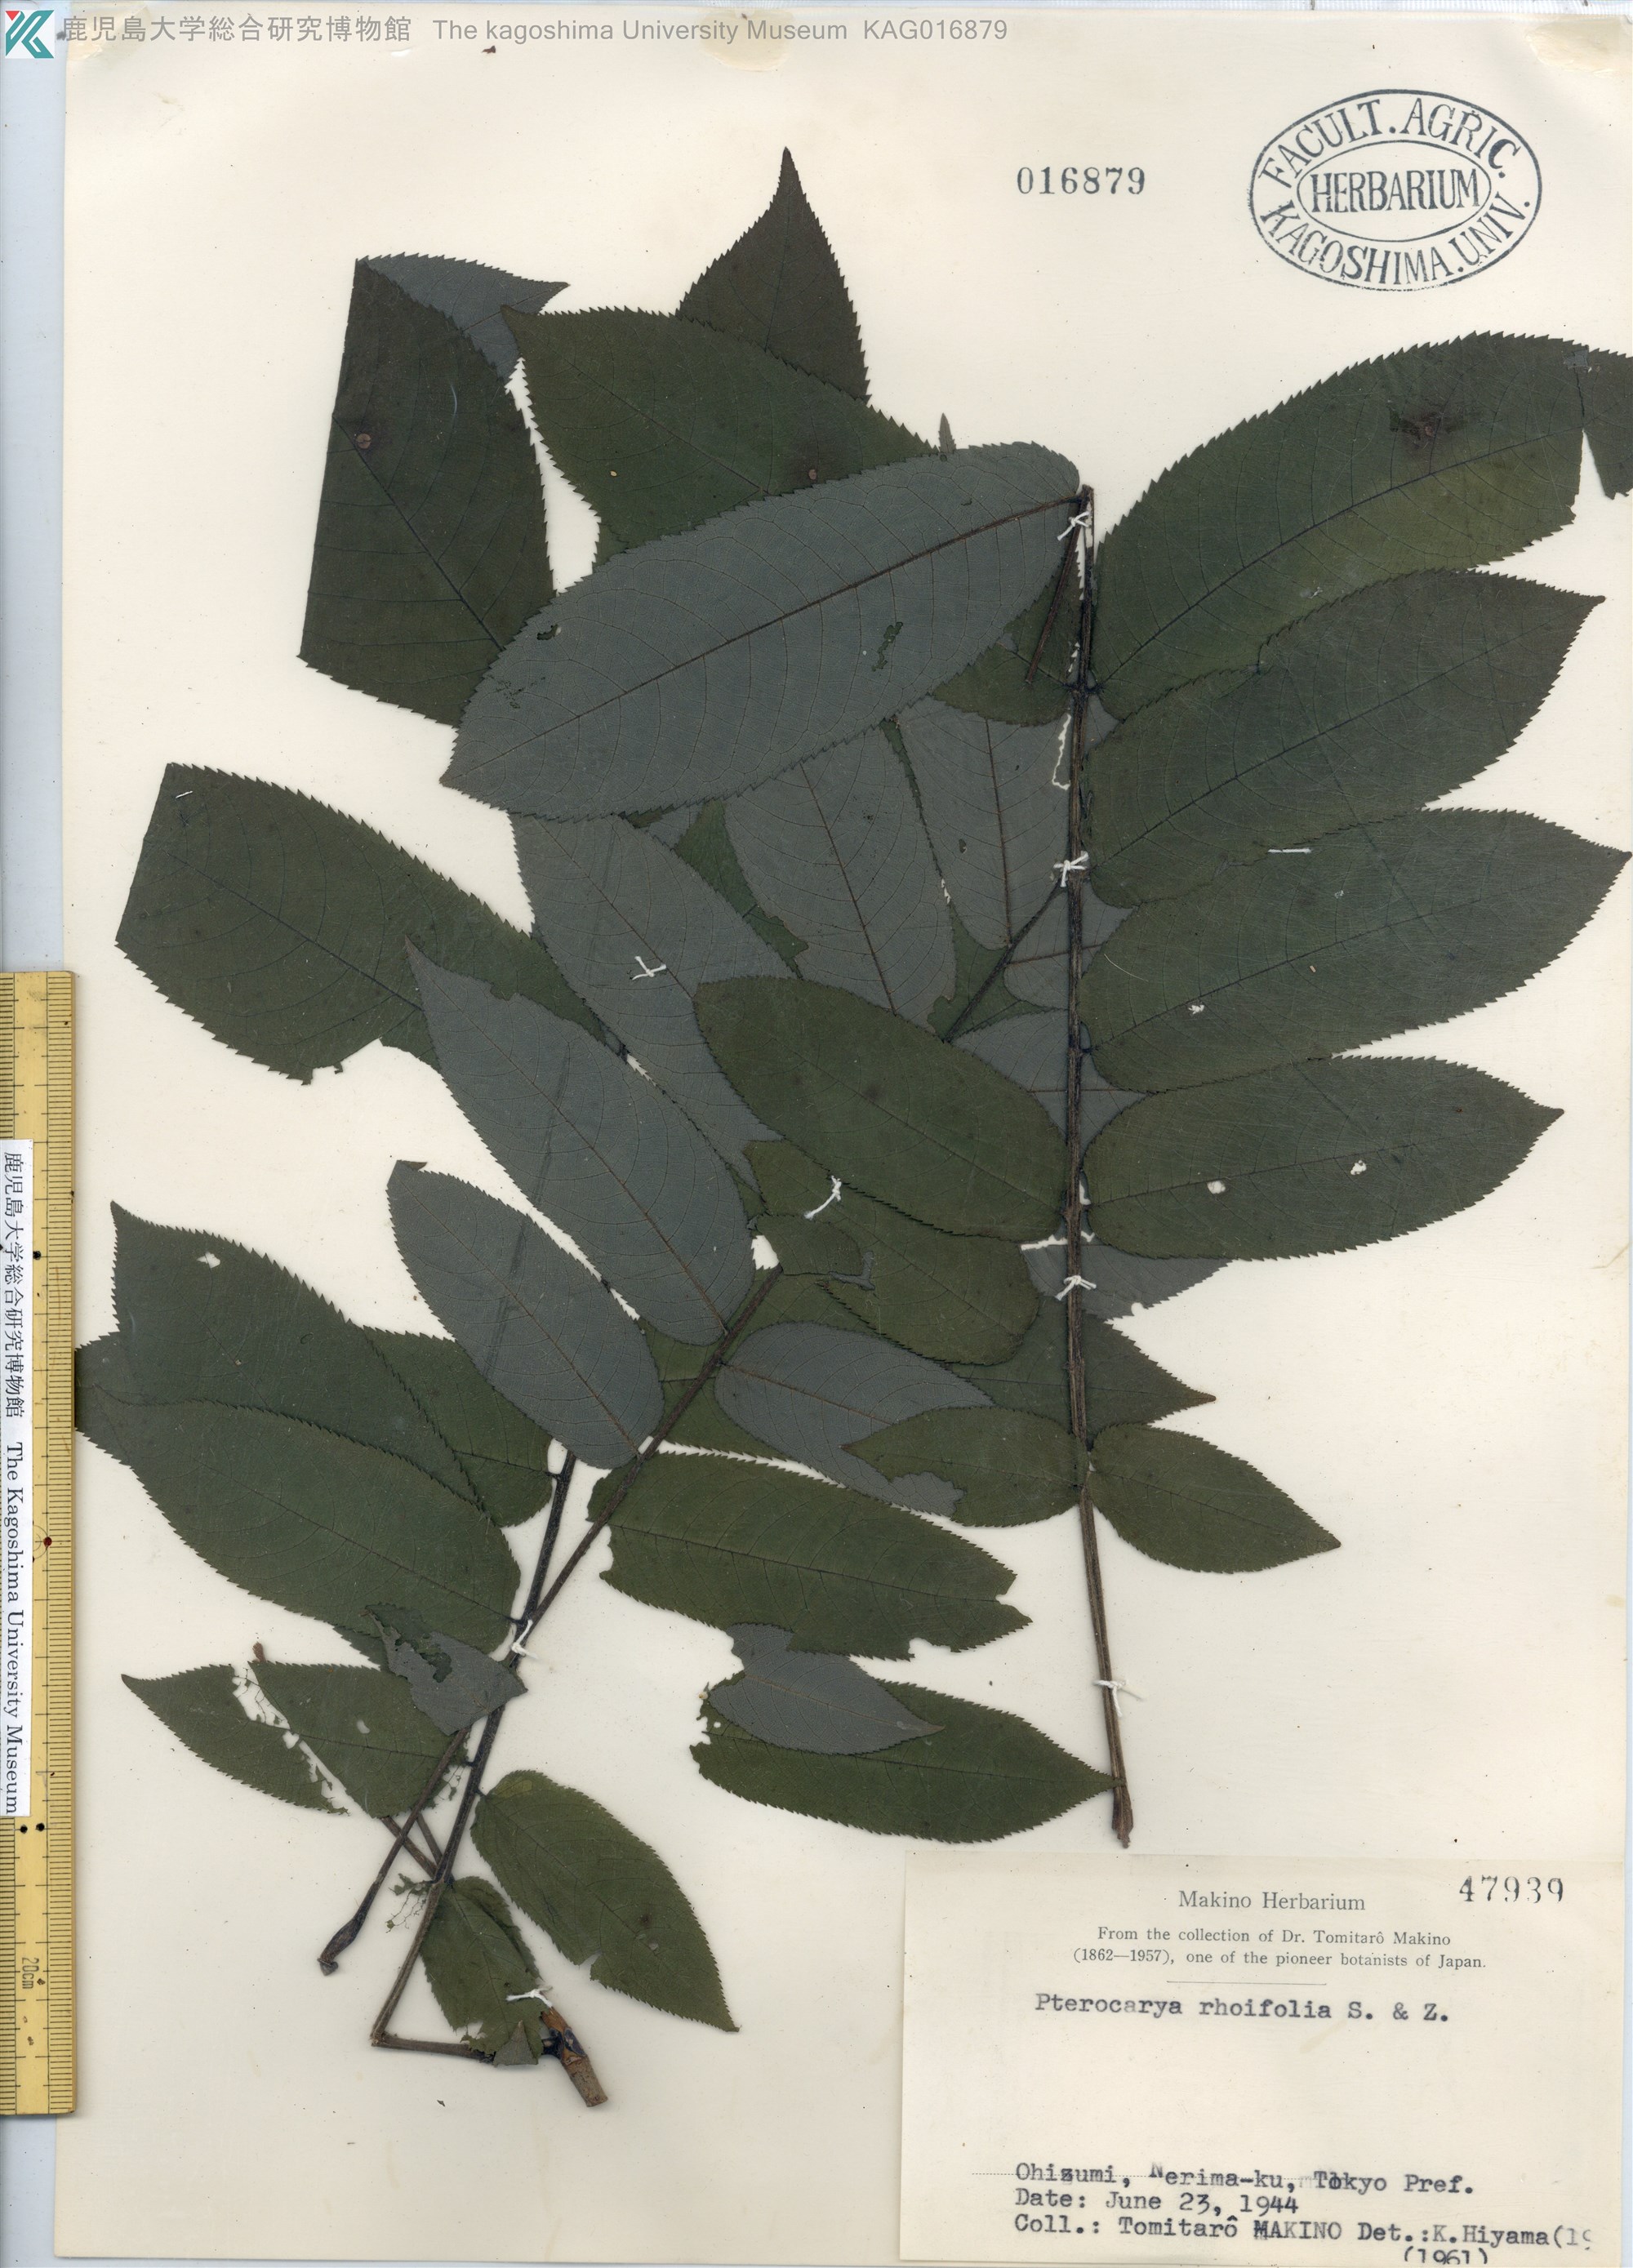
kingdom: Plantae
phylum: Tracheophyta
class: Magnoliopsida
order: Fagales
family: Juglandaceae
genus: Pterocarya
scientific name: Pterocarya rhoifolia
